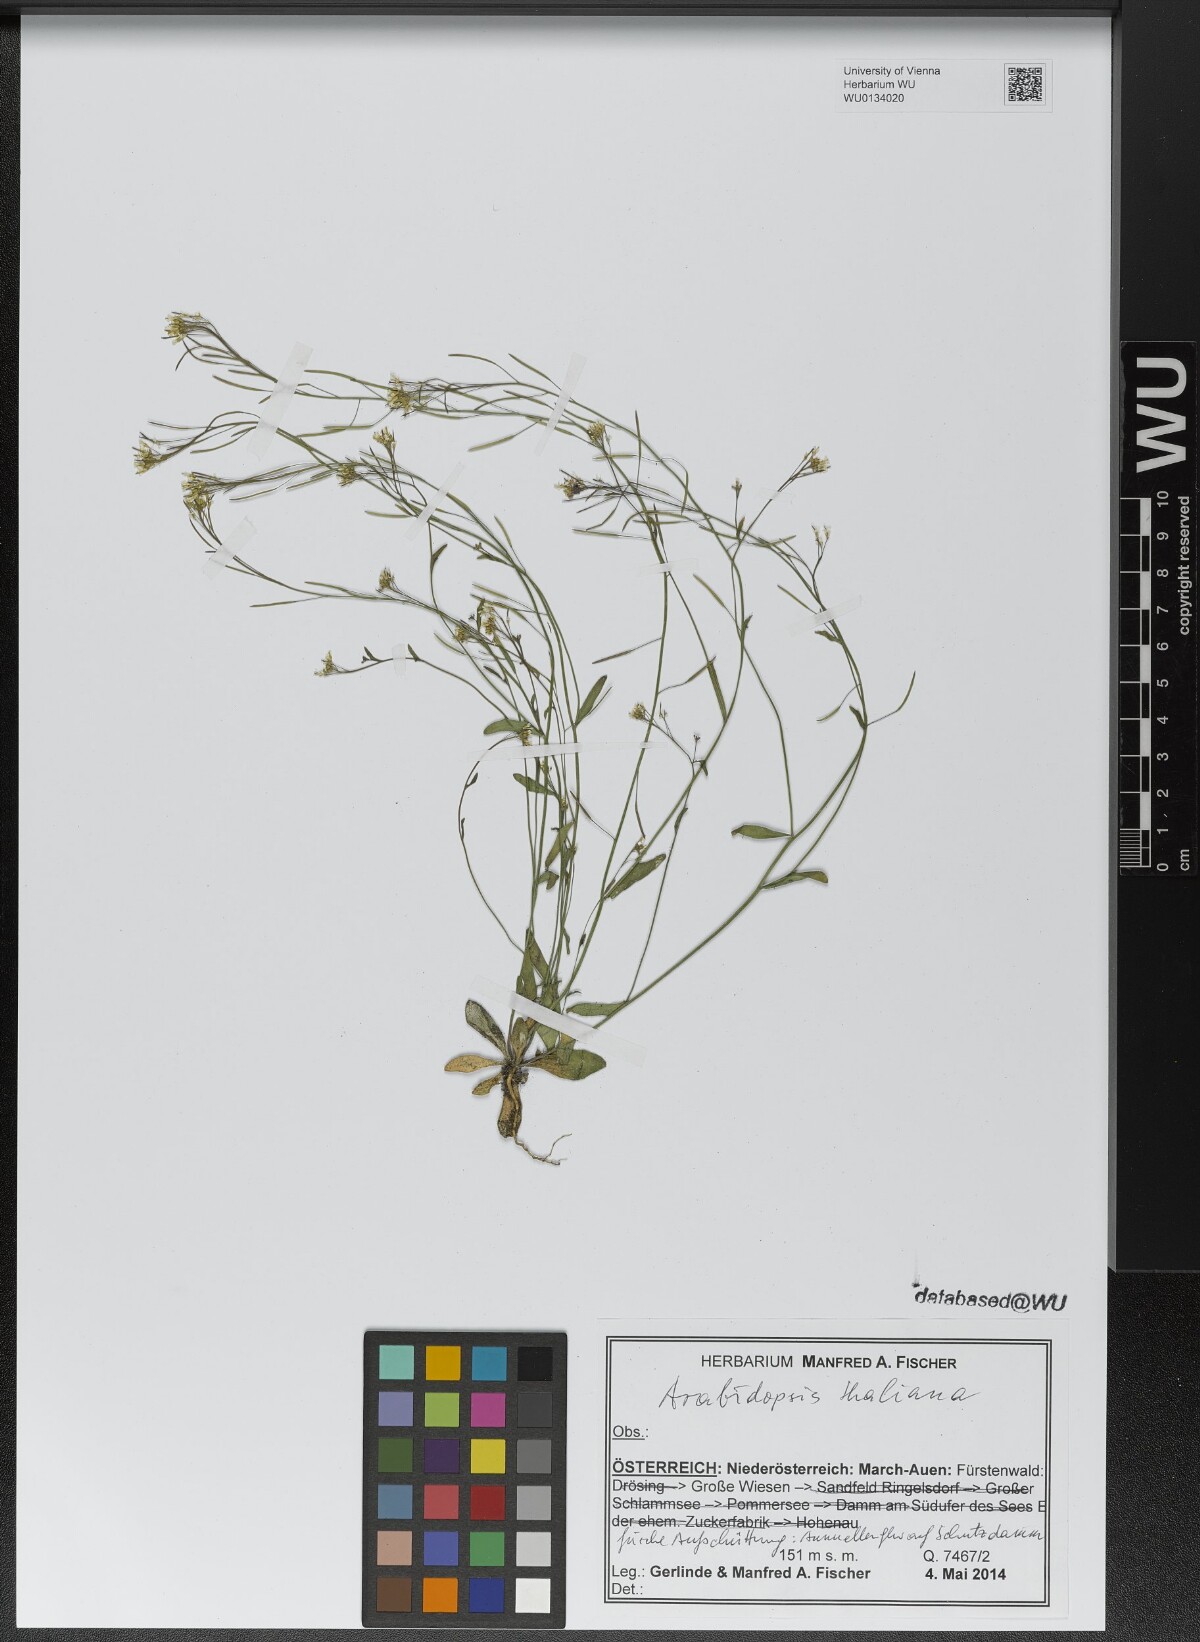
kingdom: Plantae
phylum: Tracheophyta
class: Magnoliopsida
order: Brassicales
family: Brassicaceae
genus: Arabidopsis
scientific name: Arabidopsis thaliana
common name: Thale cress
